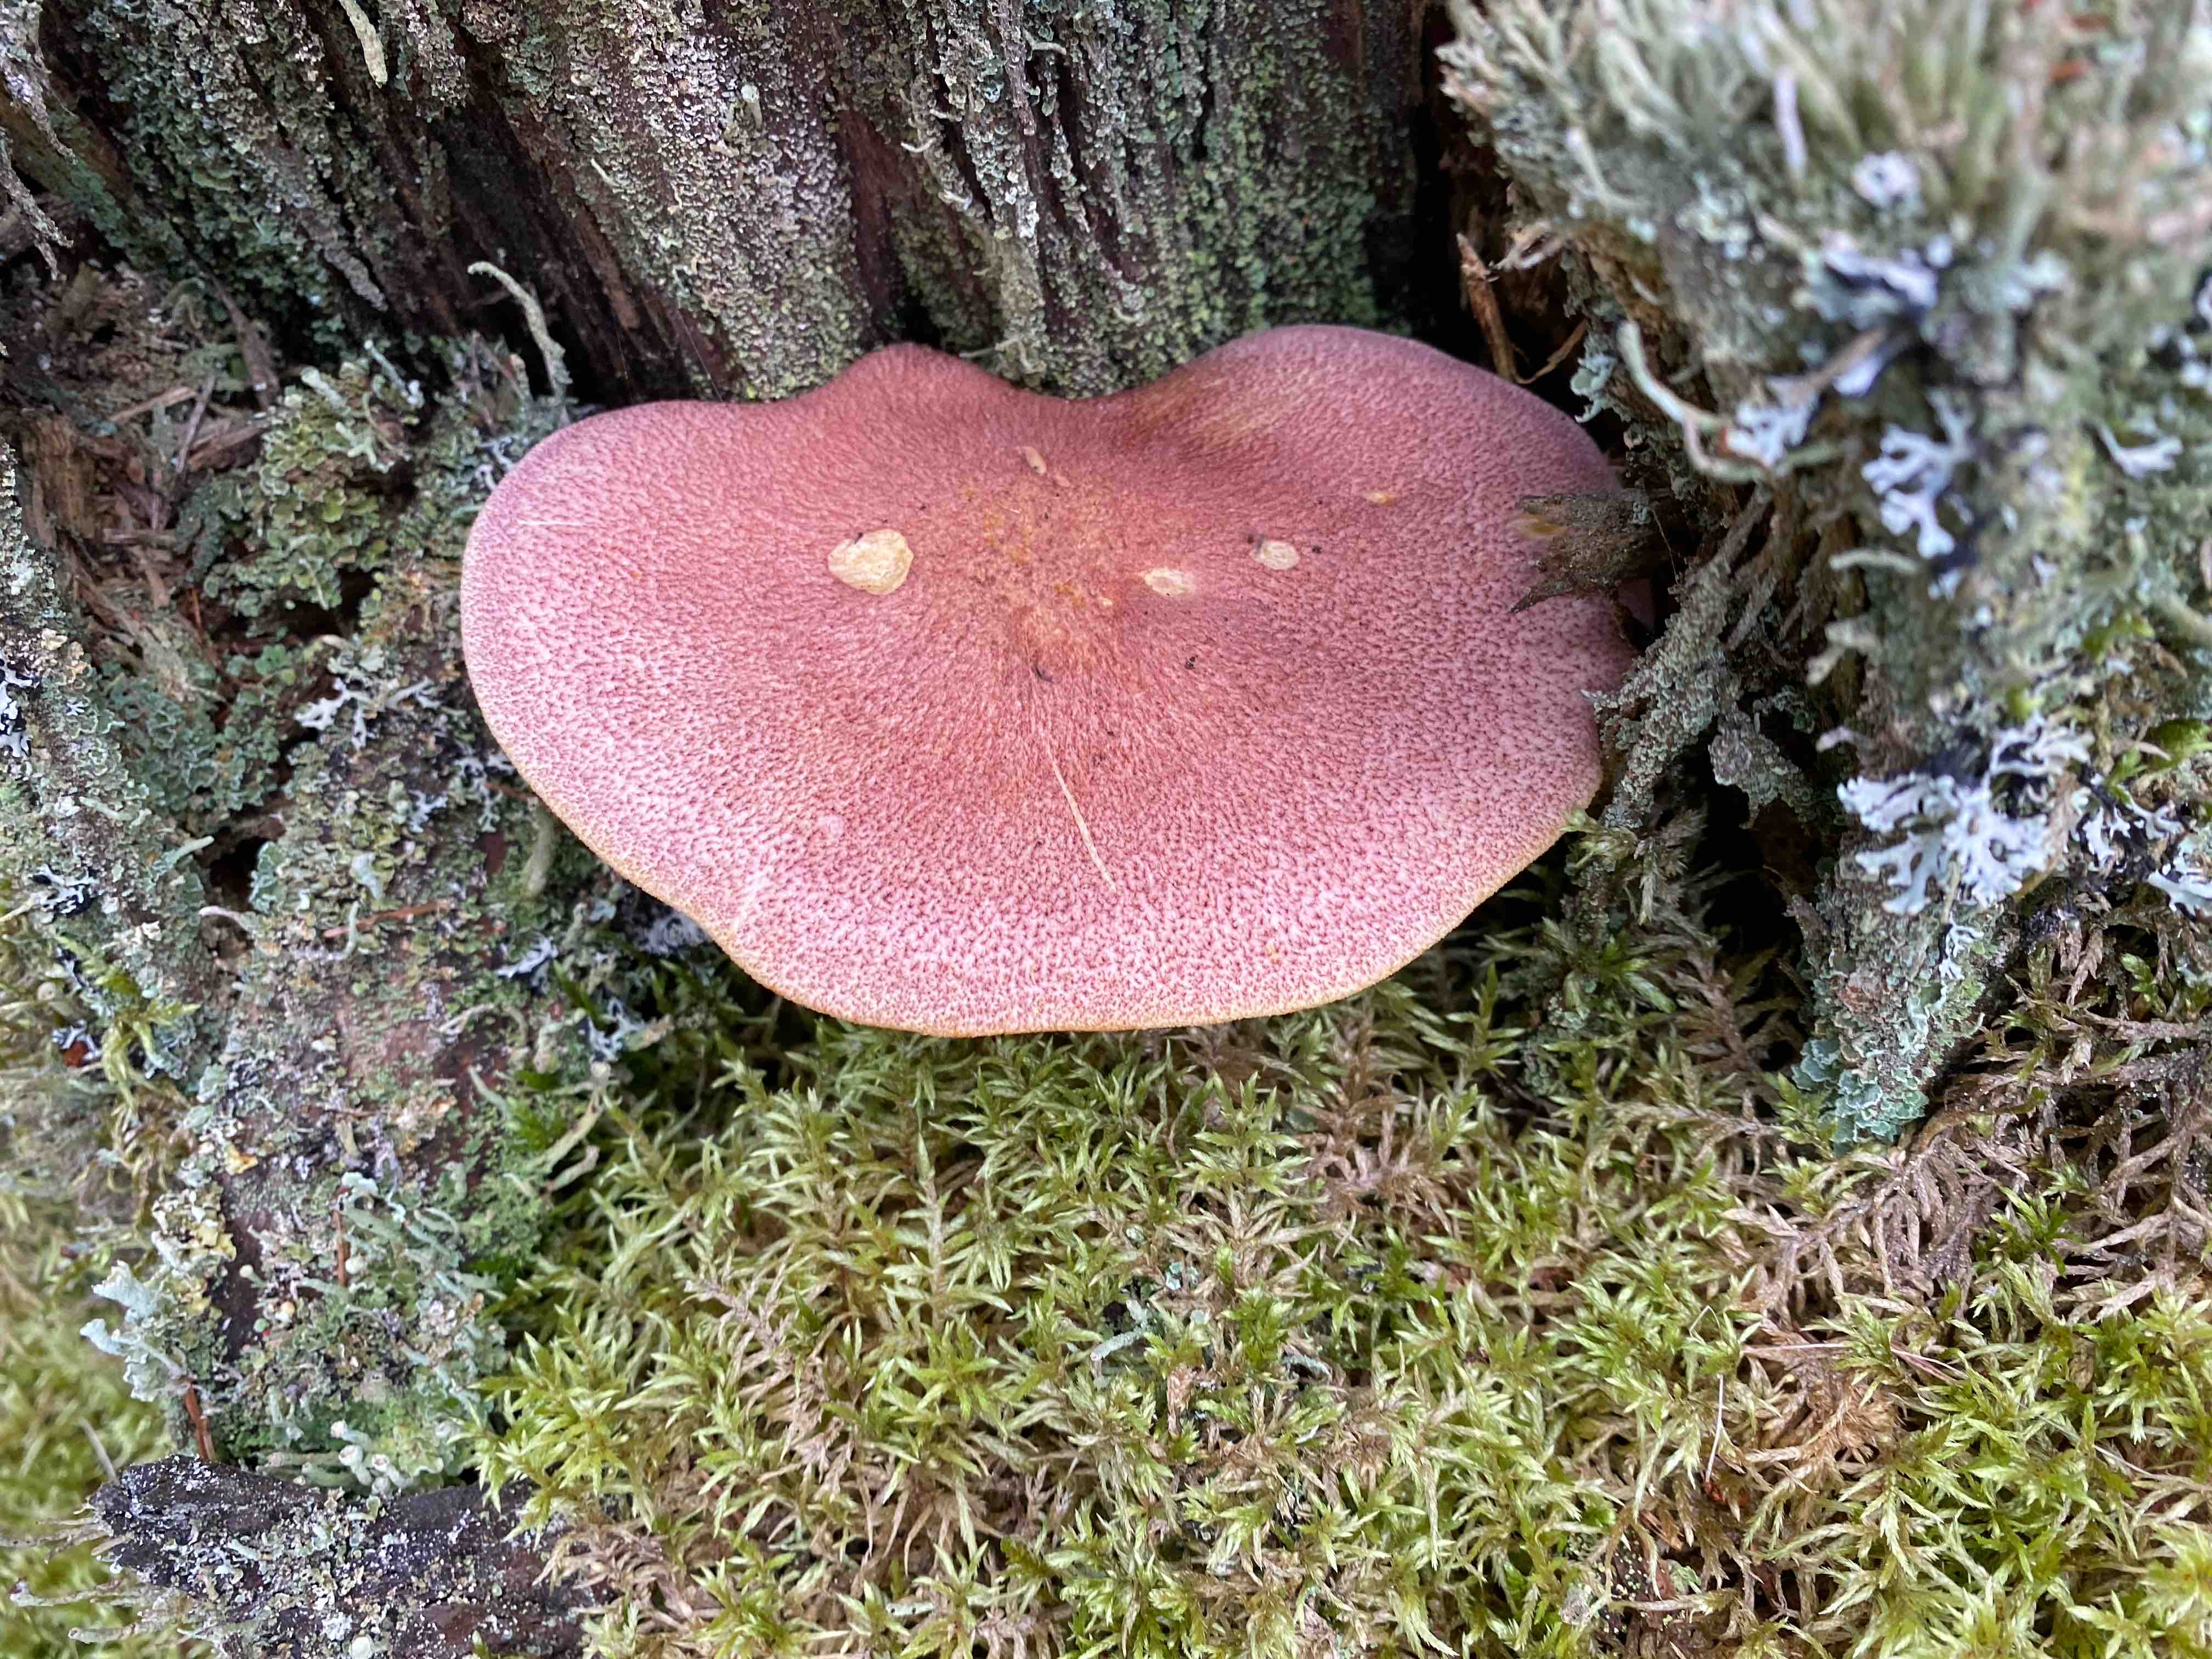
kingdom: Fungi
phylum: Basidiomycota
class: Agaricomycetes
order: Agaricales
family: Tricholomataceae
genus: Tricholomopsis
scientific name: Tricholomopsis rutilans
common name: purpur-væbnerhat
